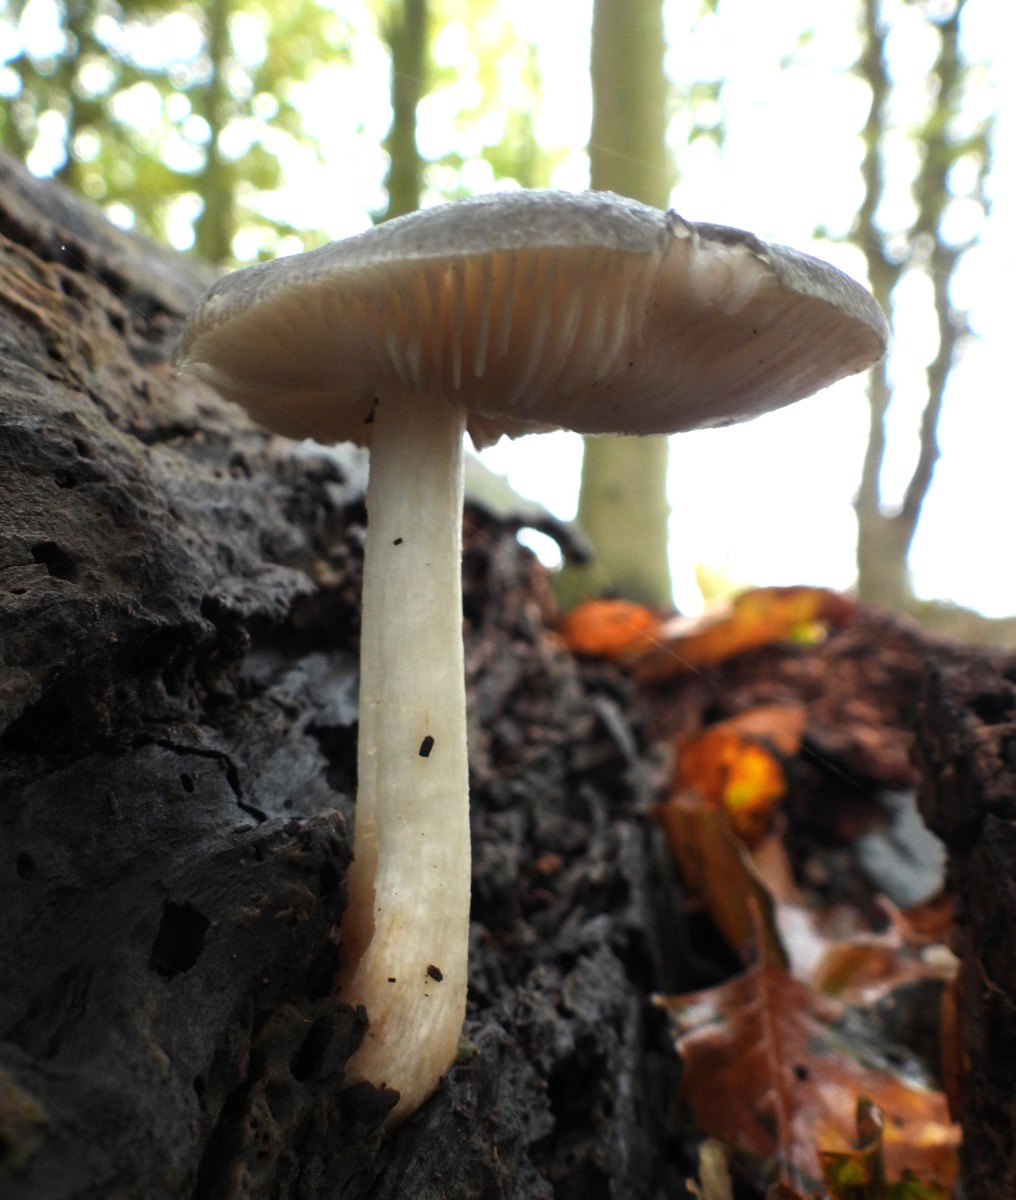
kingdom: Fungi
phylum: Basidiomycota
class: Agaricomycetes
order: Agaricales
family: Pluteaceae
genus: Pluteus
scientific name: Pluteus salicinus
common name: stiv skærmhat
